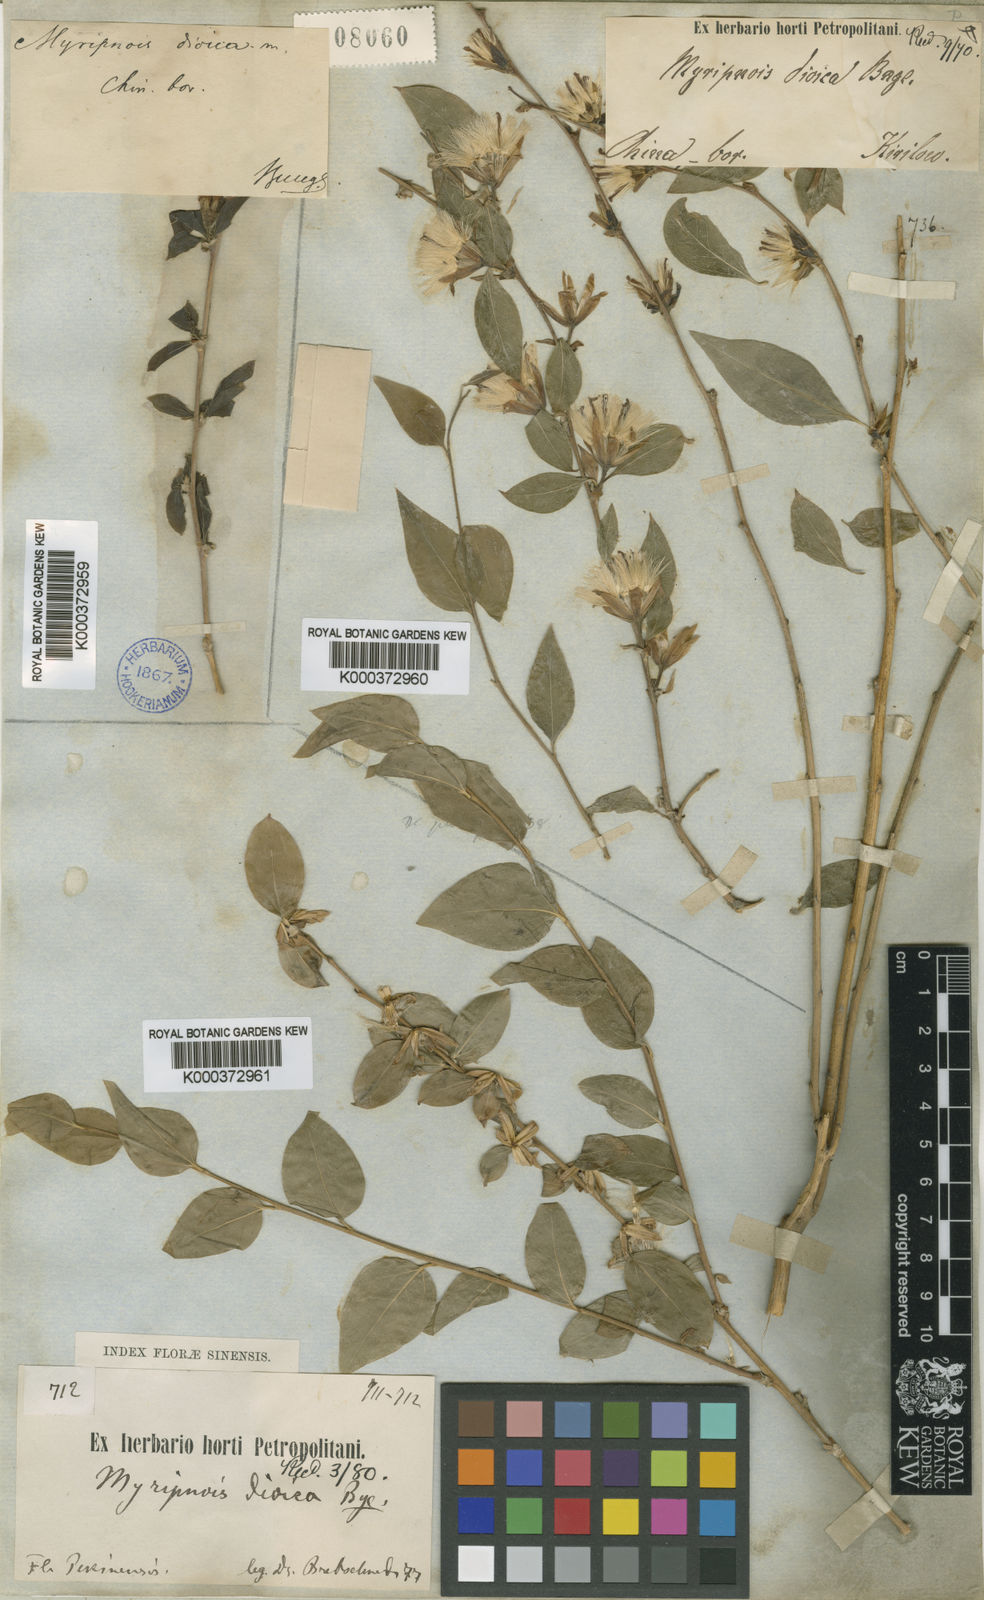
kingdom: Plantae
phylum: Tracheophyta
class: Magnoliopsida
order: Asterales
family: Asteraceae
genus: Pertya
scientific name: Pertya dioica
